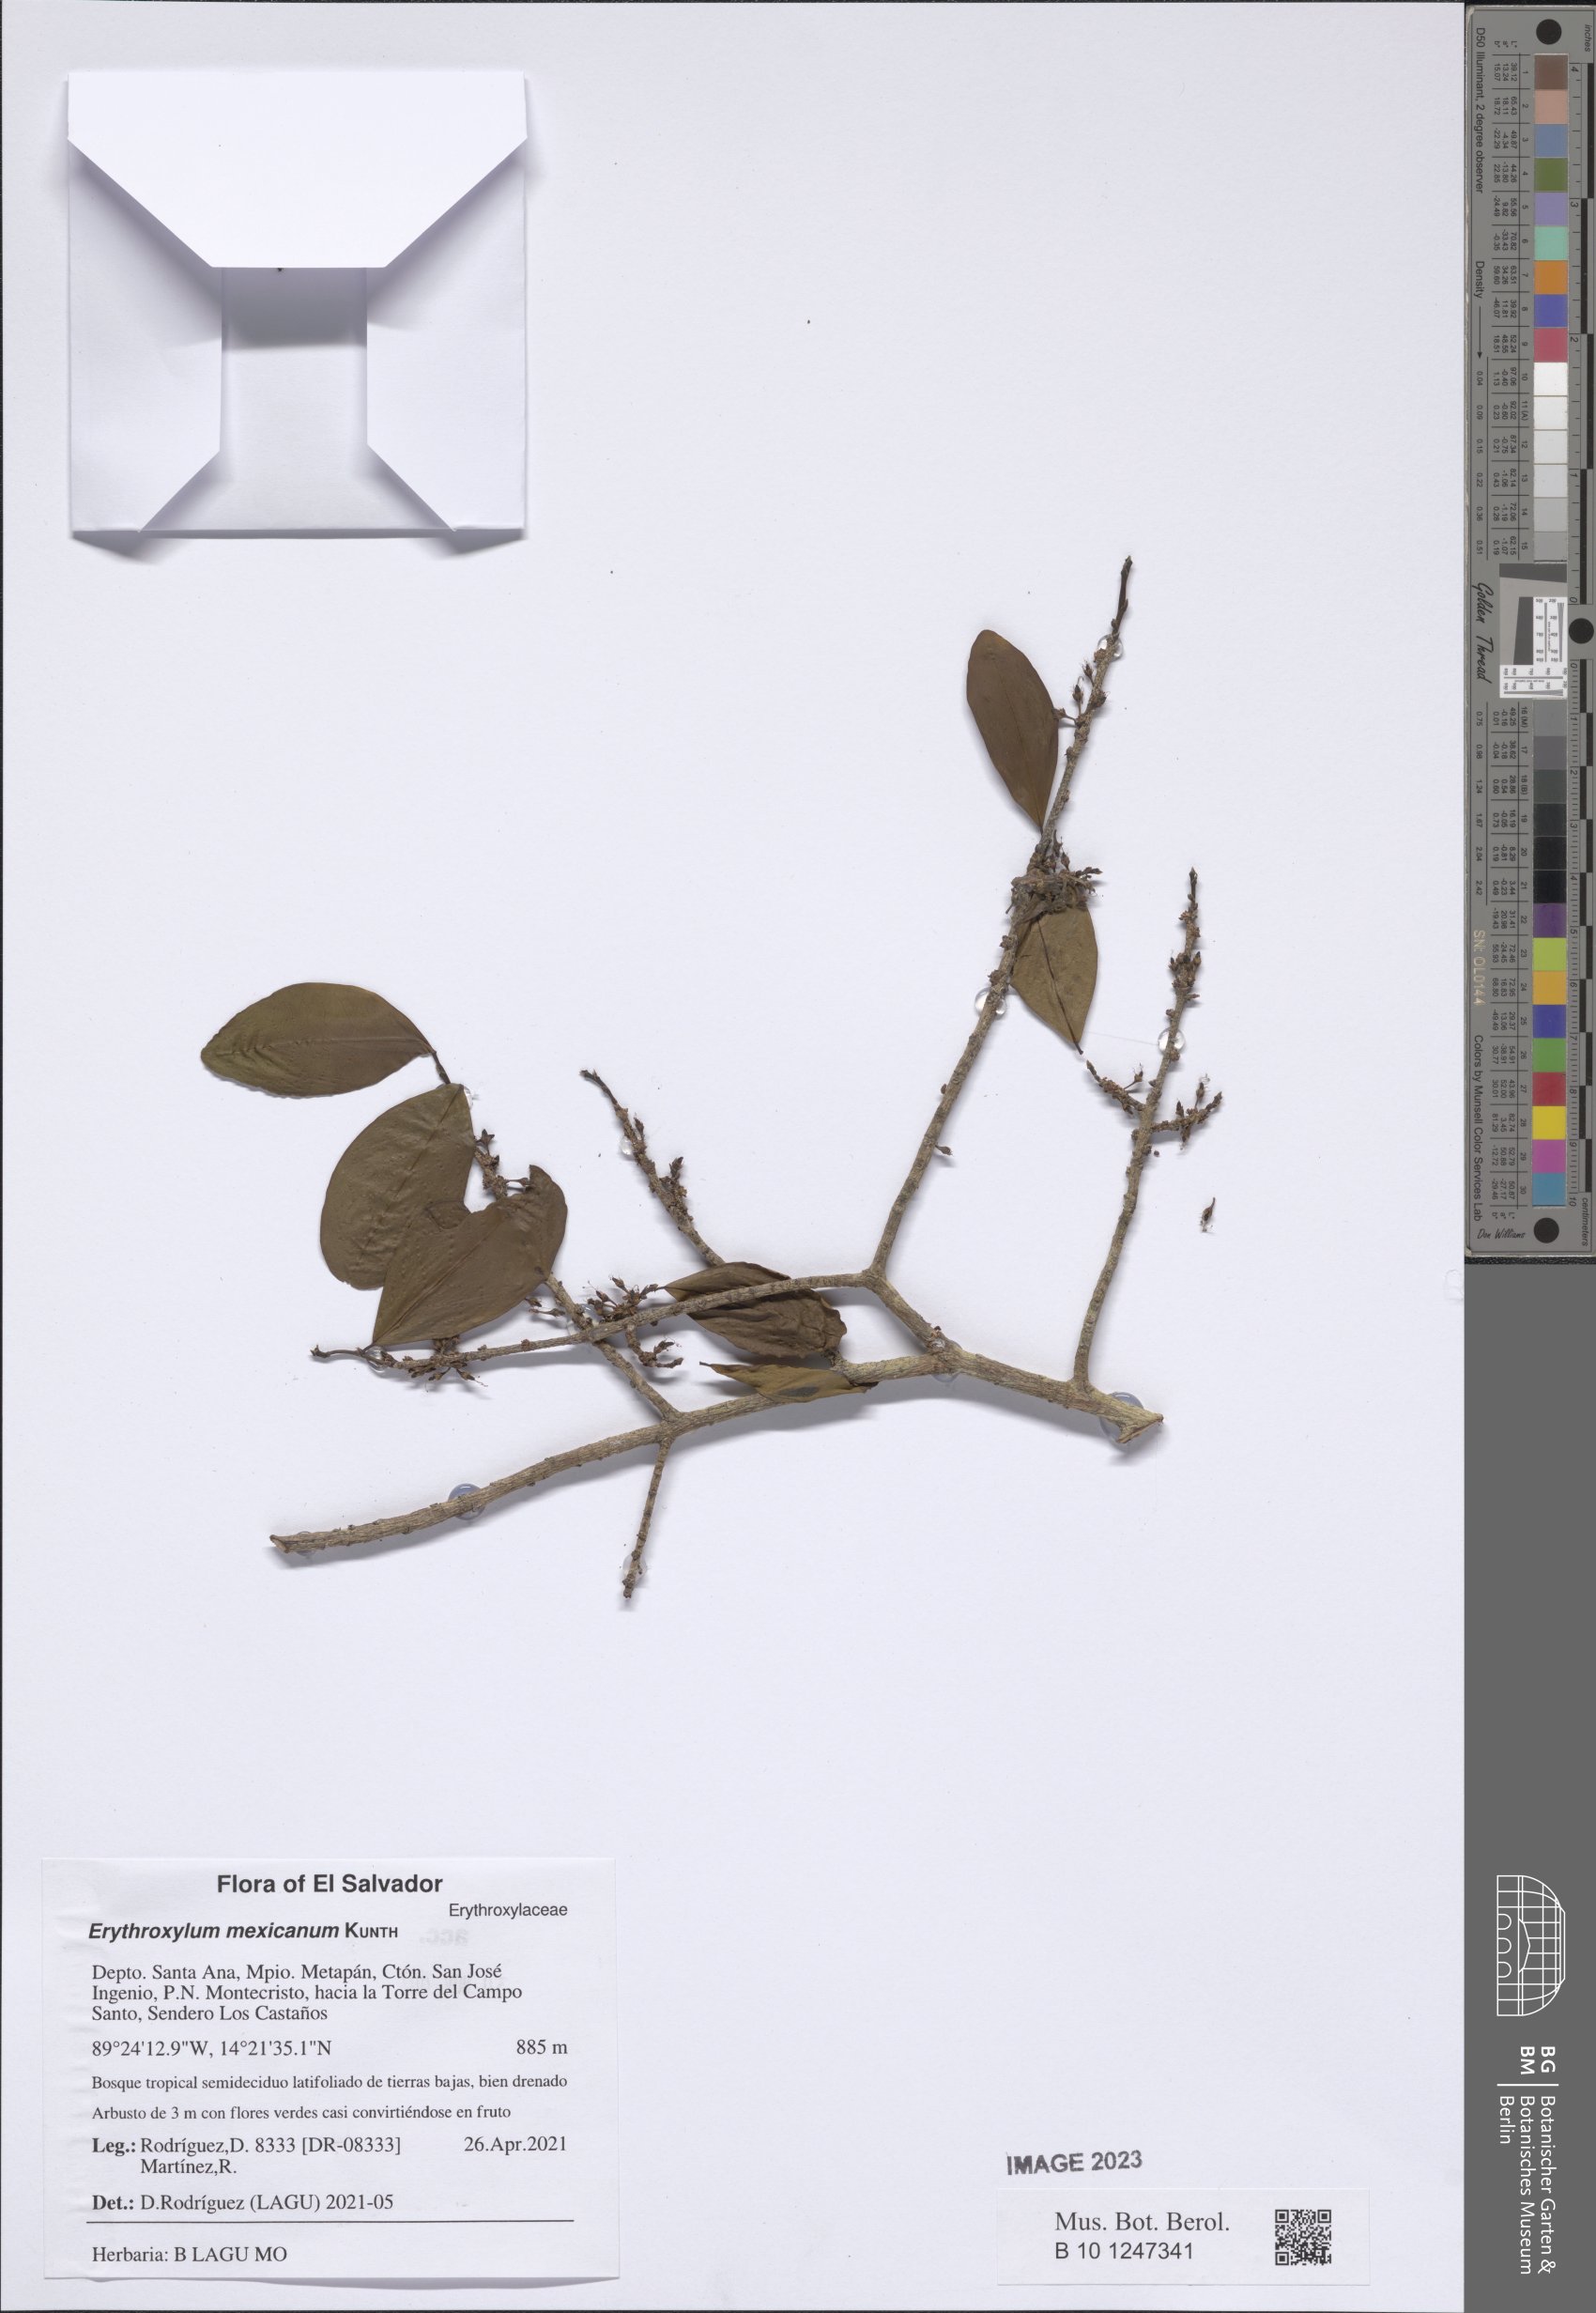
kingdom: Plantae
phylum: Tracheophyta
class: Magnoliopsida
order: Malpighiales
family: Erythroxylaceae
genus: Erythroxylum
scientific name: Erythroxylum mexicanum
